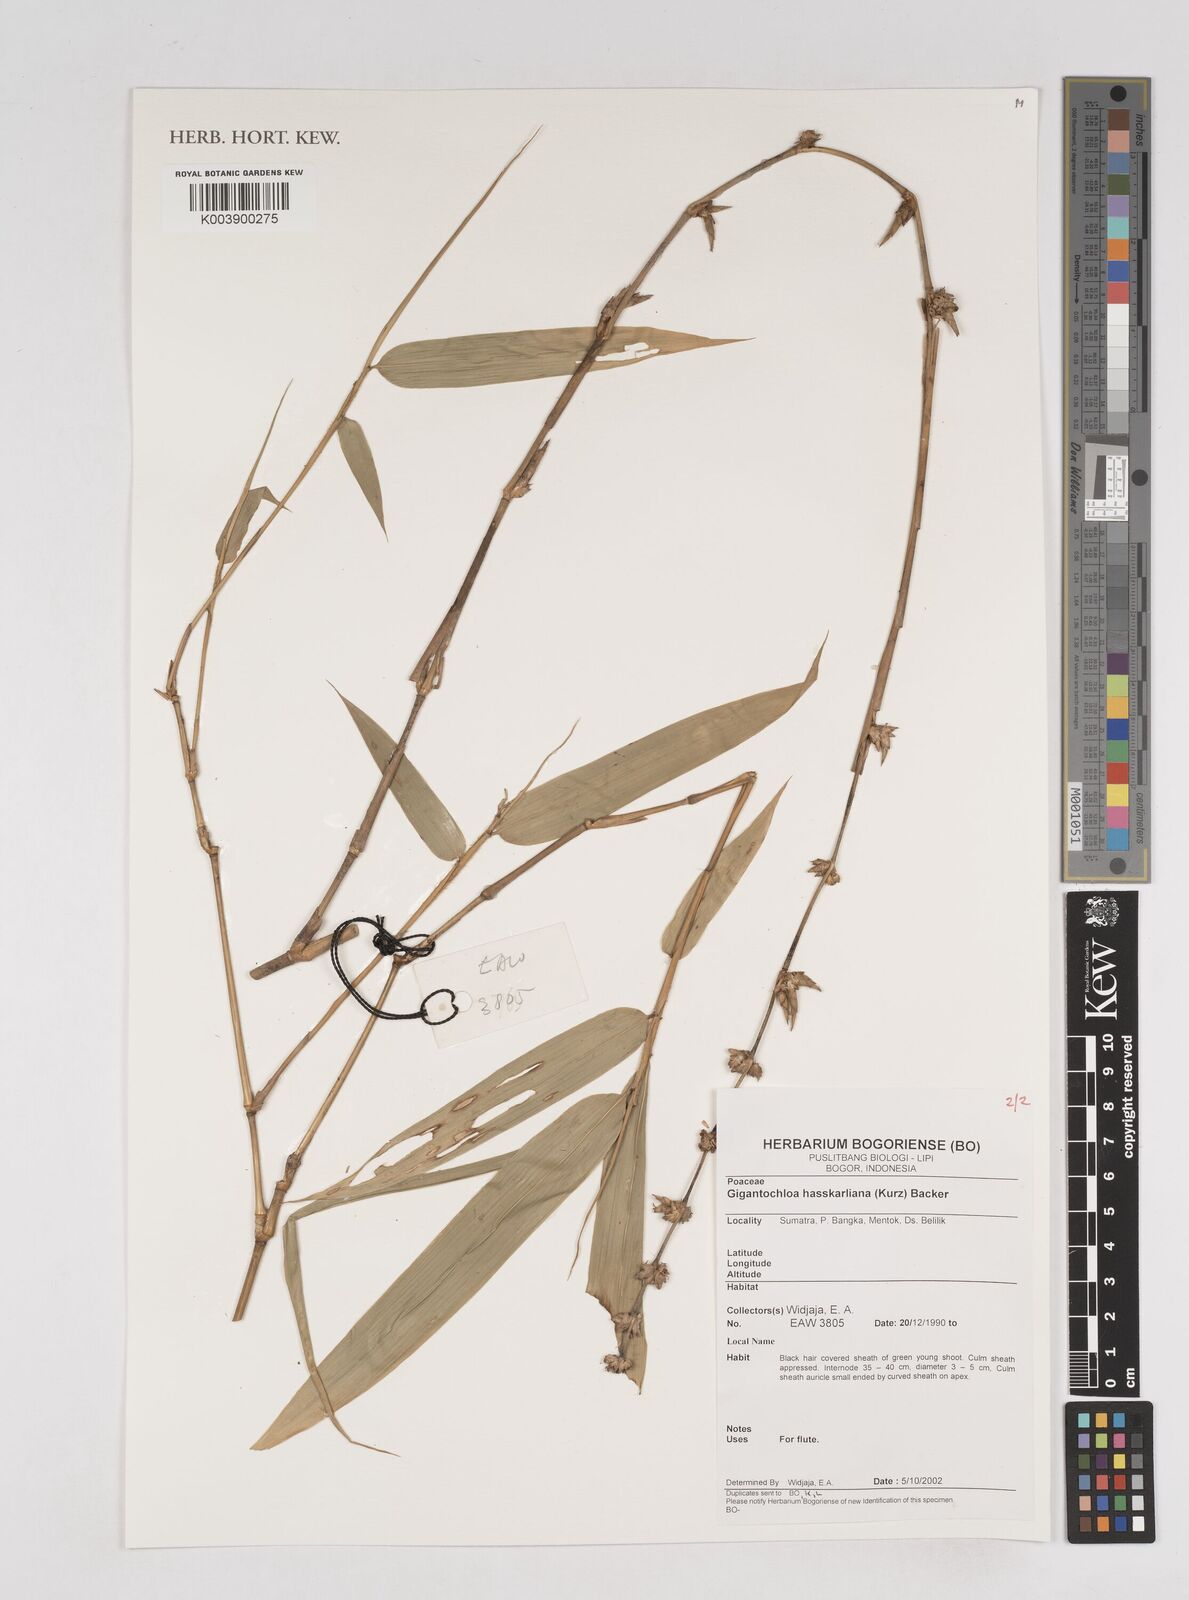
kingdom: Plantae
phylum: Tracheophyta
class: Liliopsida
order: Poales
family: Poaceae
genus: Gigantochloa
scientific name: Gigantochloa hasskarliana
